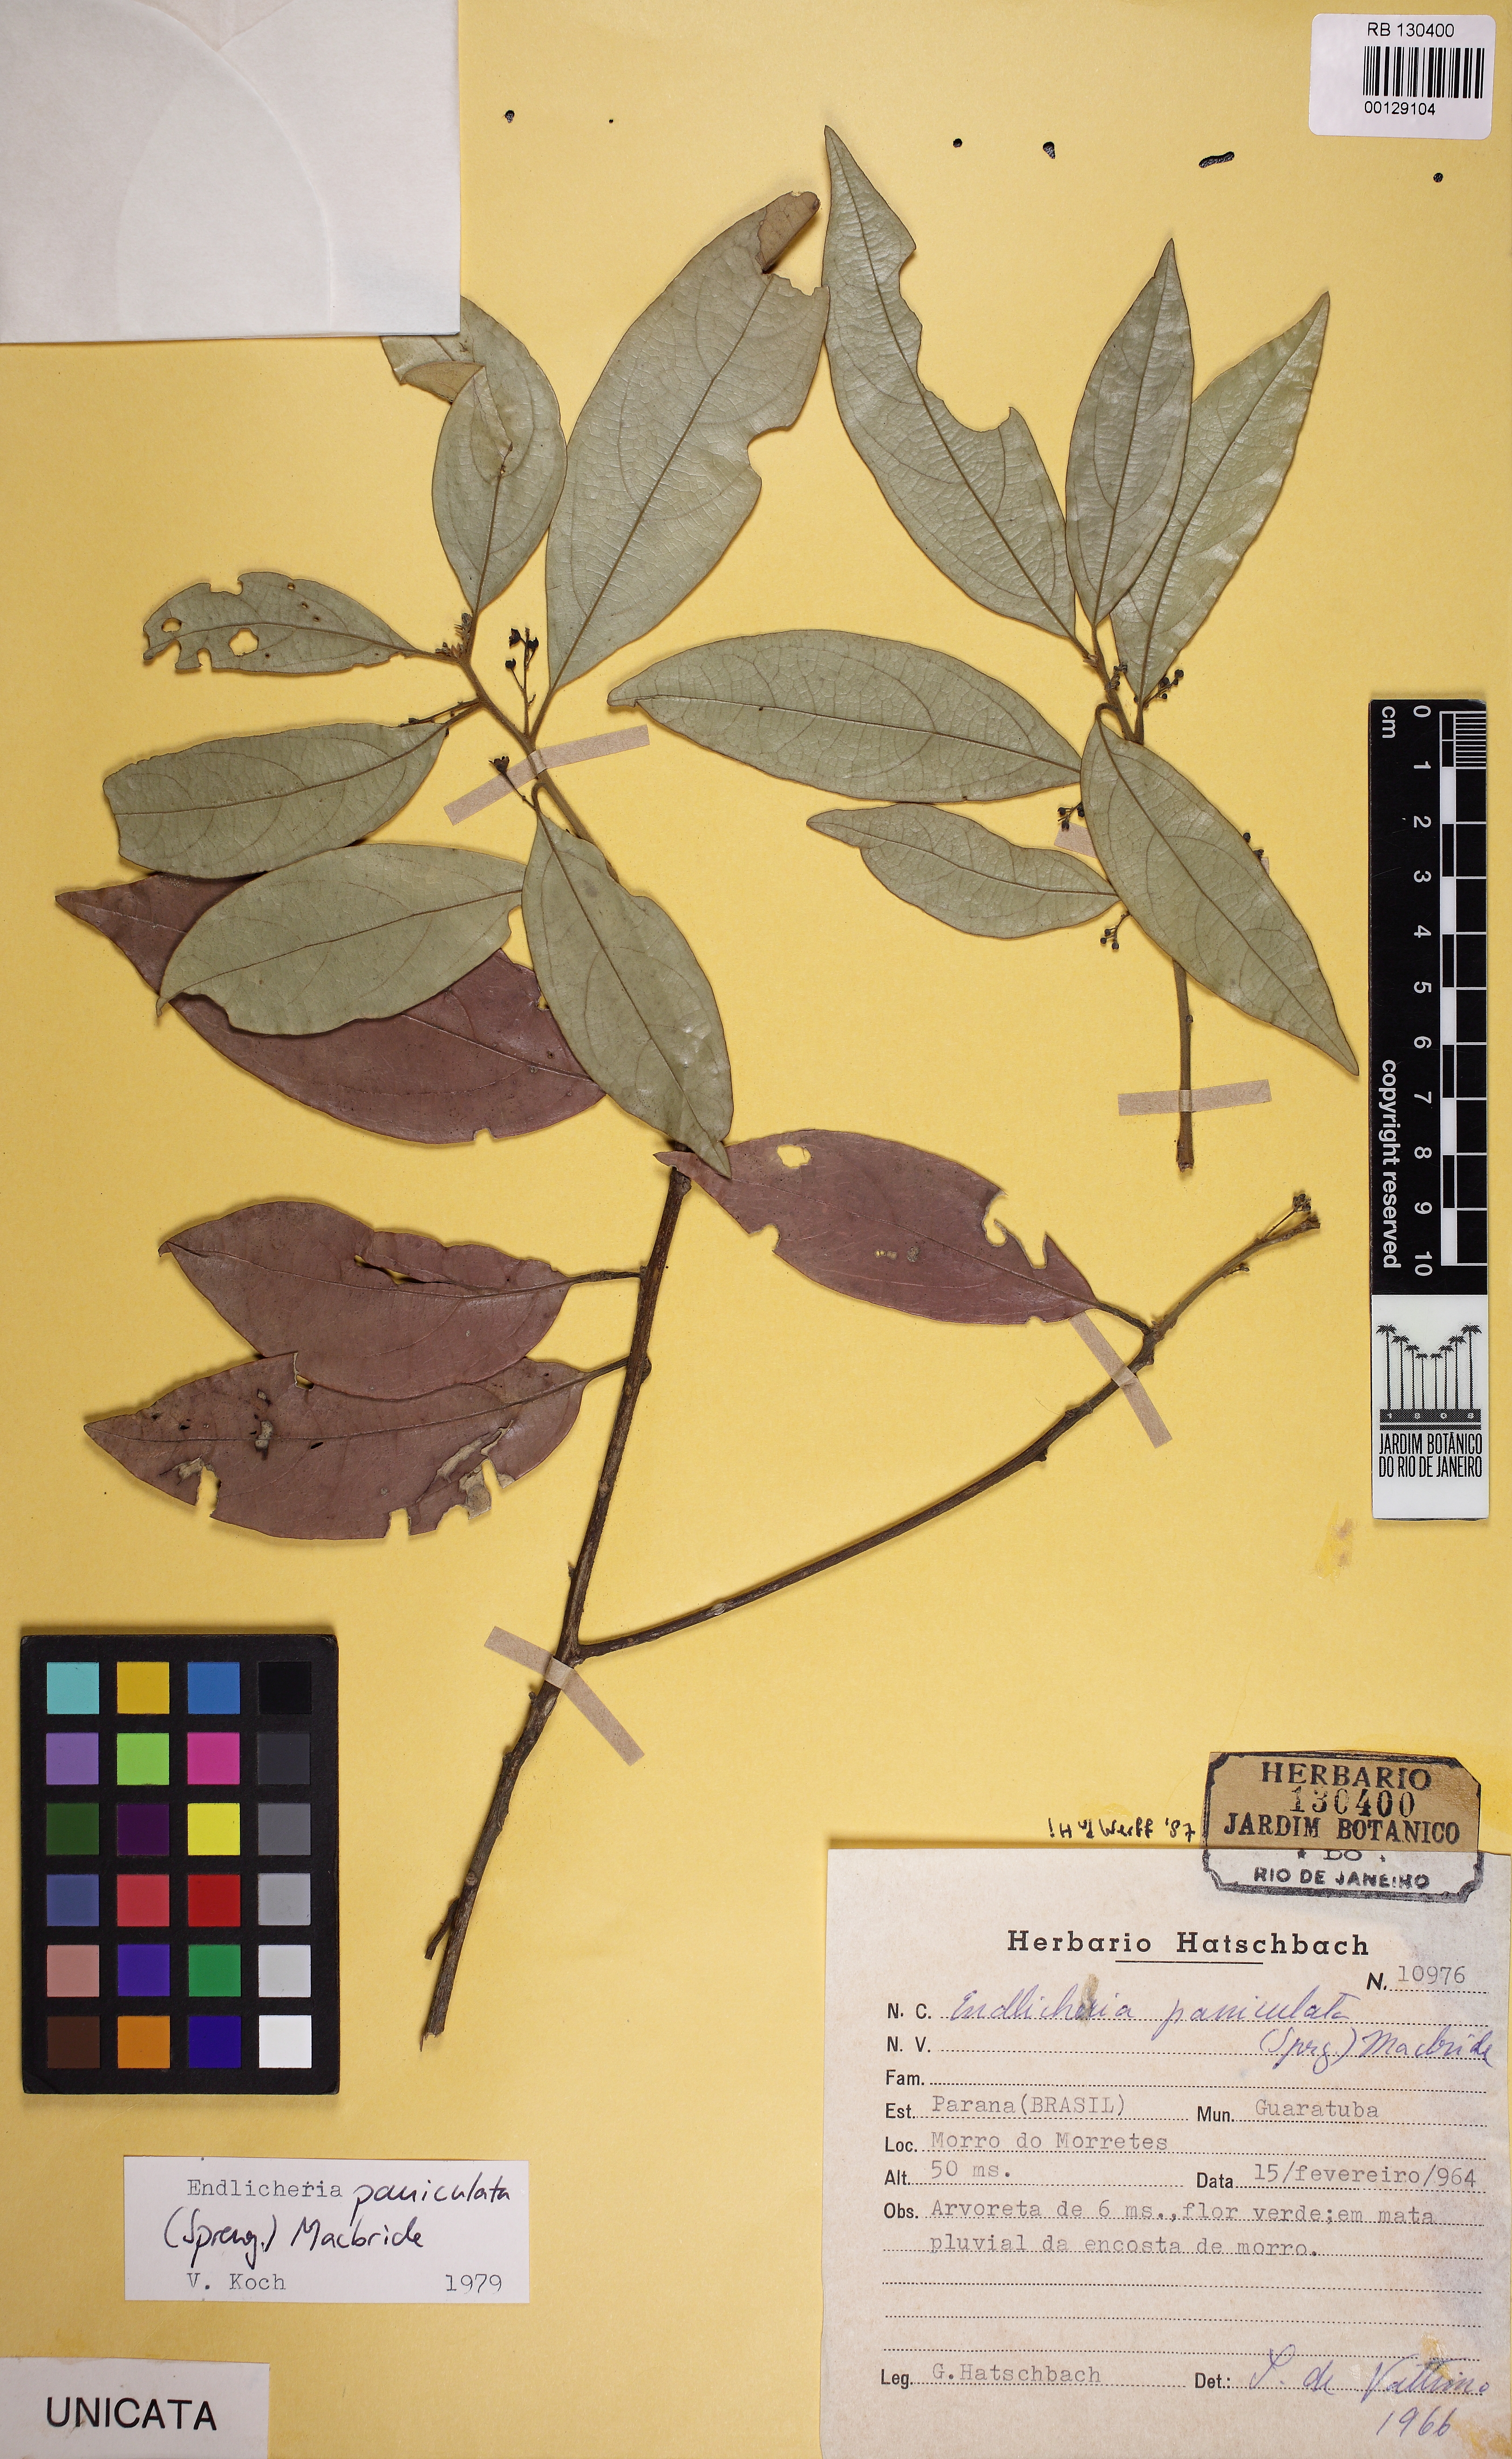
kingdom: Plantae
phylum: Tracheophyta
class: Magnoliopsida
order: Laurales
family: Lauraceae
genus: Endlicheria
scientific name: Endlicheria paniculata
